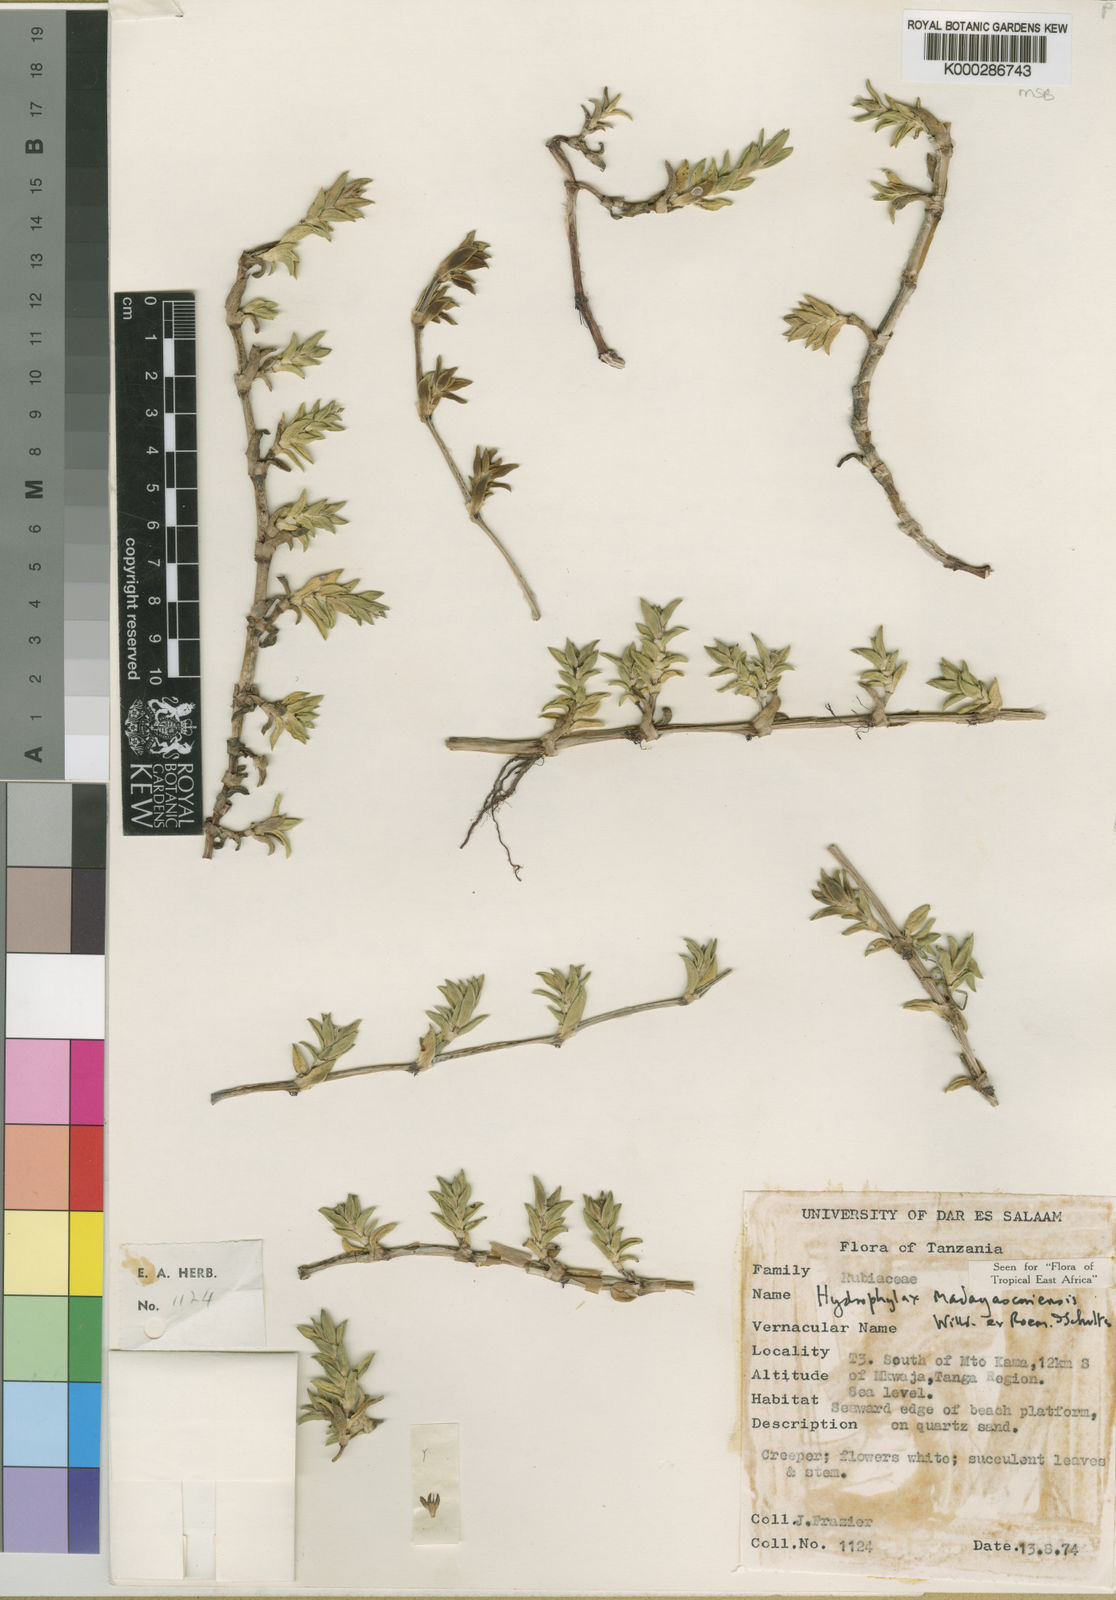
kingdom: Plantae
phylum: Tracheophyta
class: Magnoliopsida
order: Gentianales
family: Rubiaceae
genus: Phylohydrax
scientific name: Phylohydrax madagascariensis
